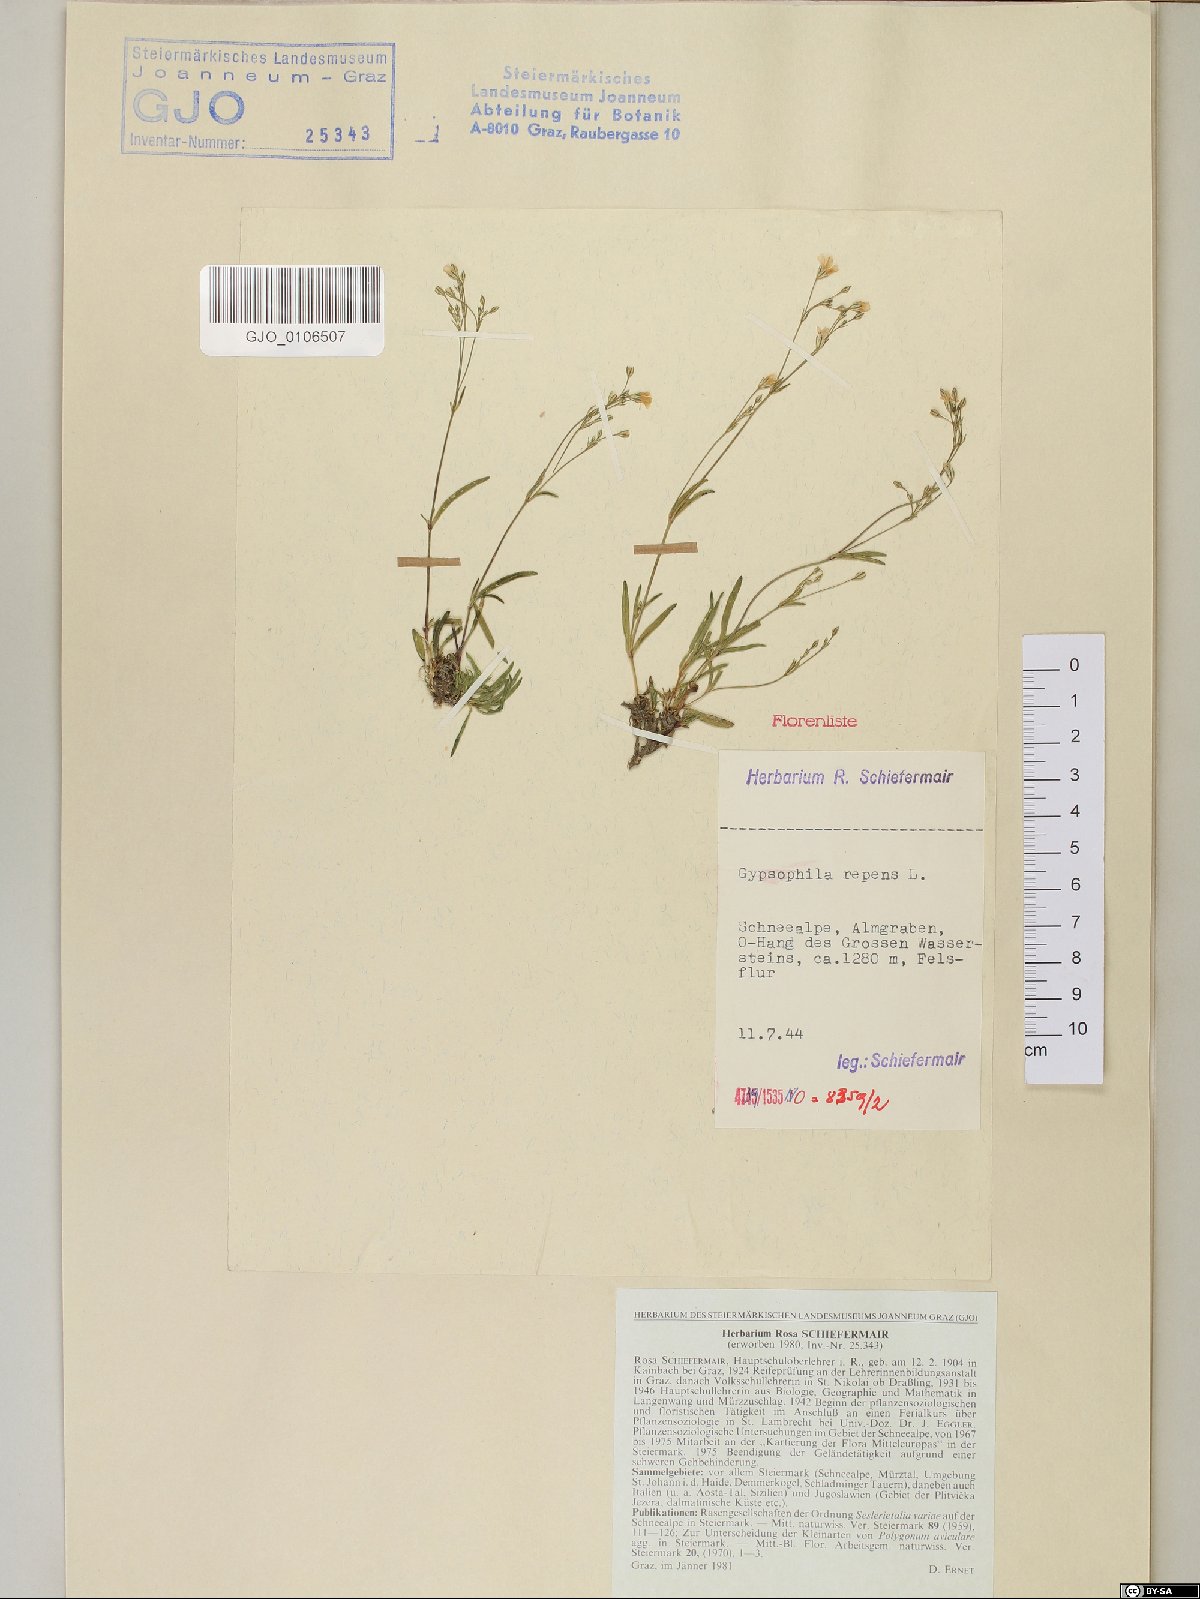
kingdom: Plantae
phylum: Tracheophyta
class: Magnoliopsida
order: Caryophyllales
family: Caryophyllaceae
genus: Gypsophila
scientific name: Gypsophila repens
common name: Creeping baby's-breath
